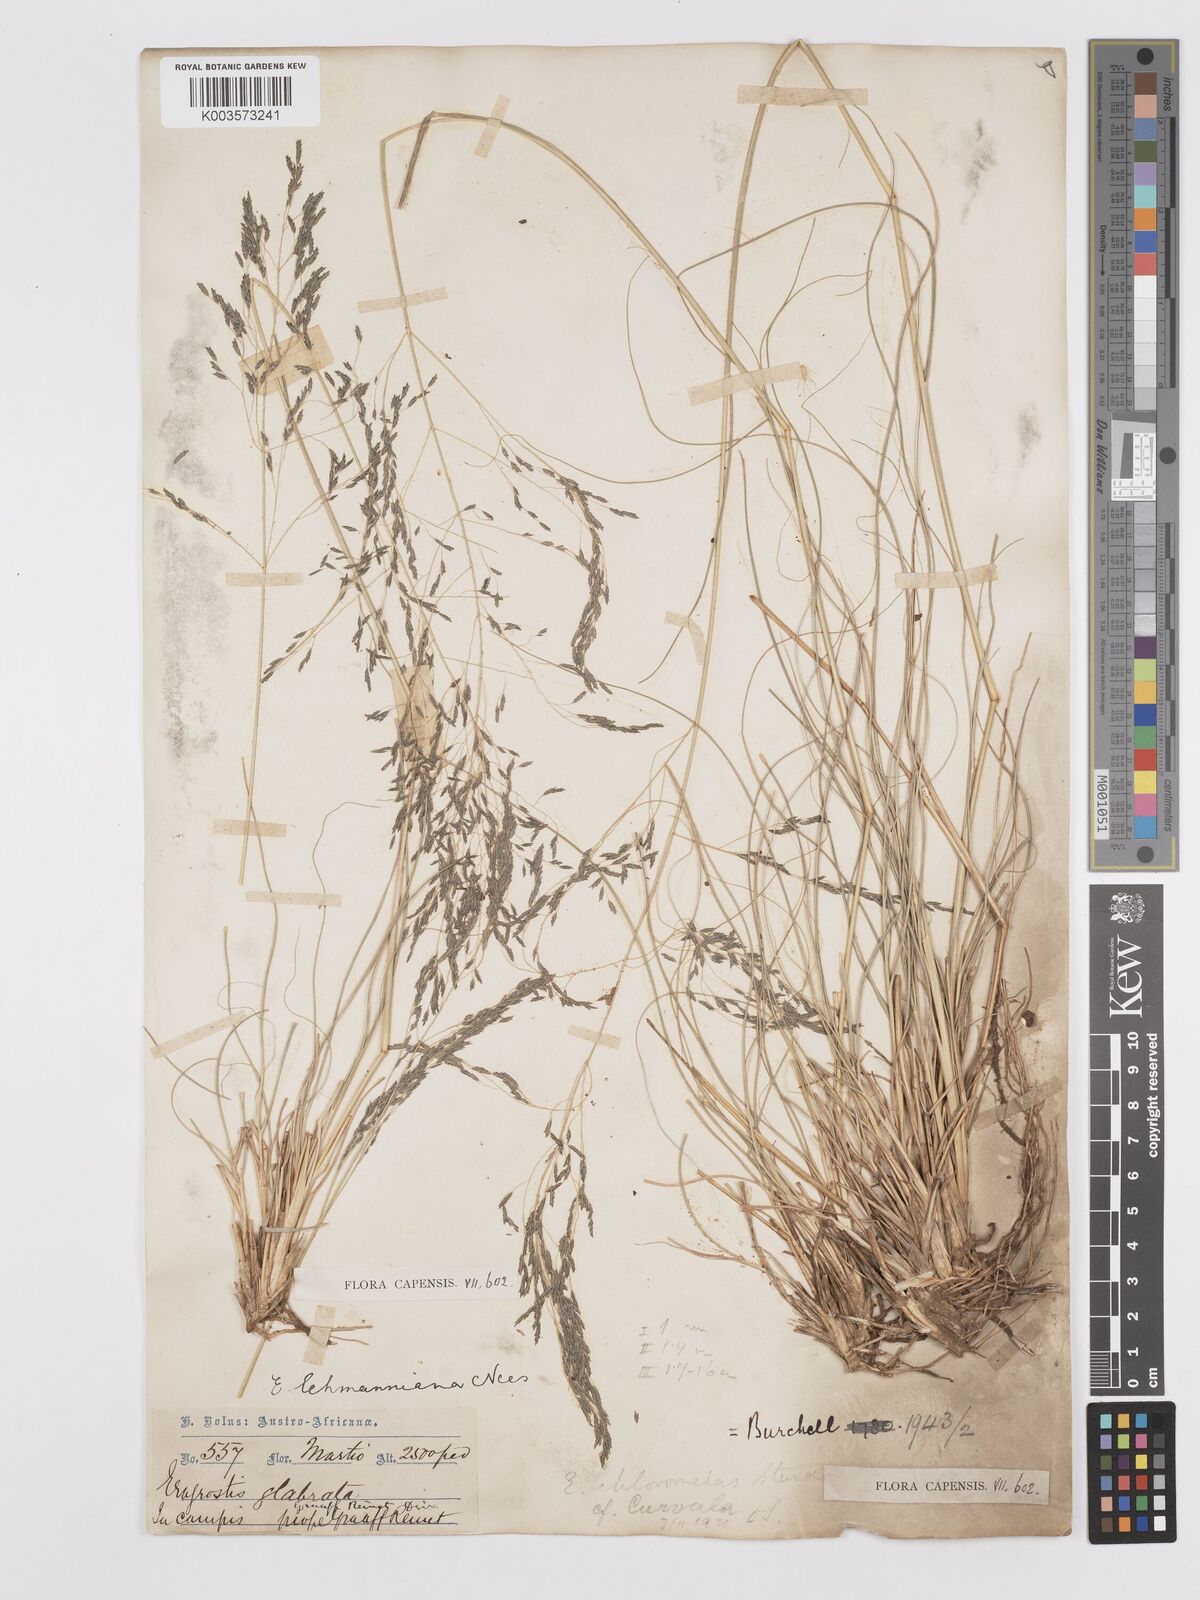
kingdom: Plantae
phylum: Tracheophyta
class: Liliopsida
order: Poales
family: Poaceae
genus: Eragrostis
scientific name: Eragrostis curvula
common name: African love-grass
